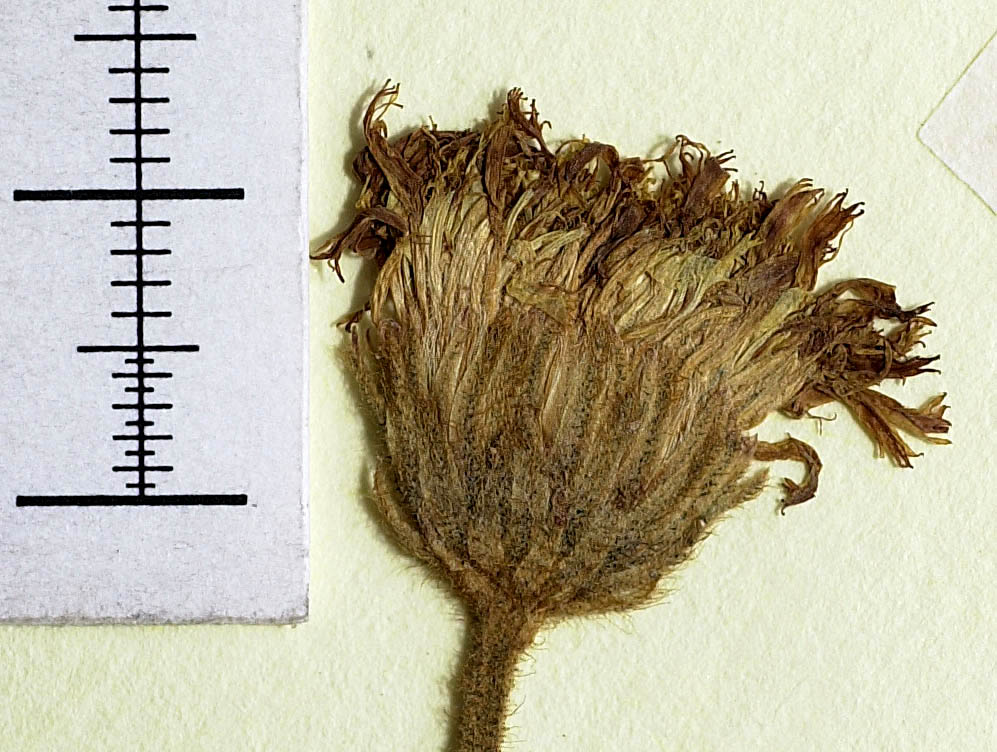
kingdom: Plantae
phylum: Tracheophyta
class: Magnoliopsida
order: Asterales
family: Asteraceae
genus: Pilosella
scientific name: Pilosella longisquama
